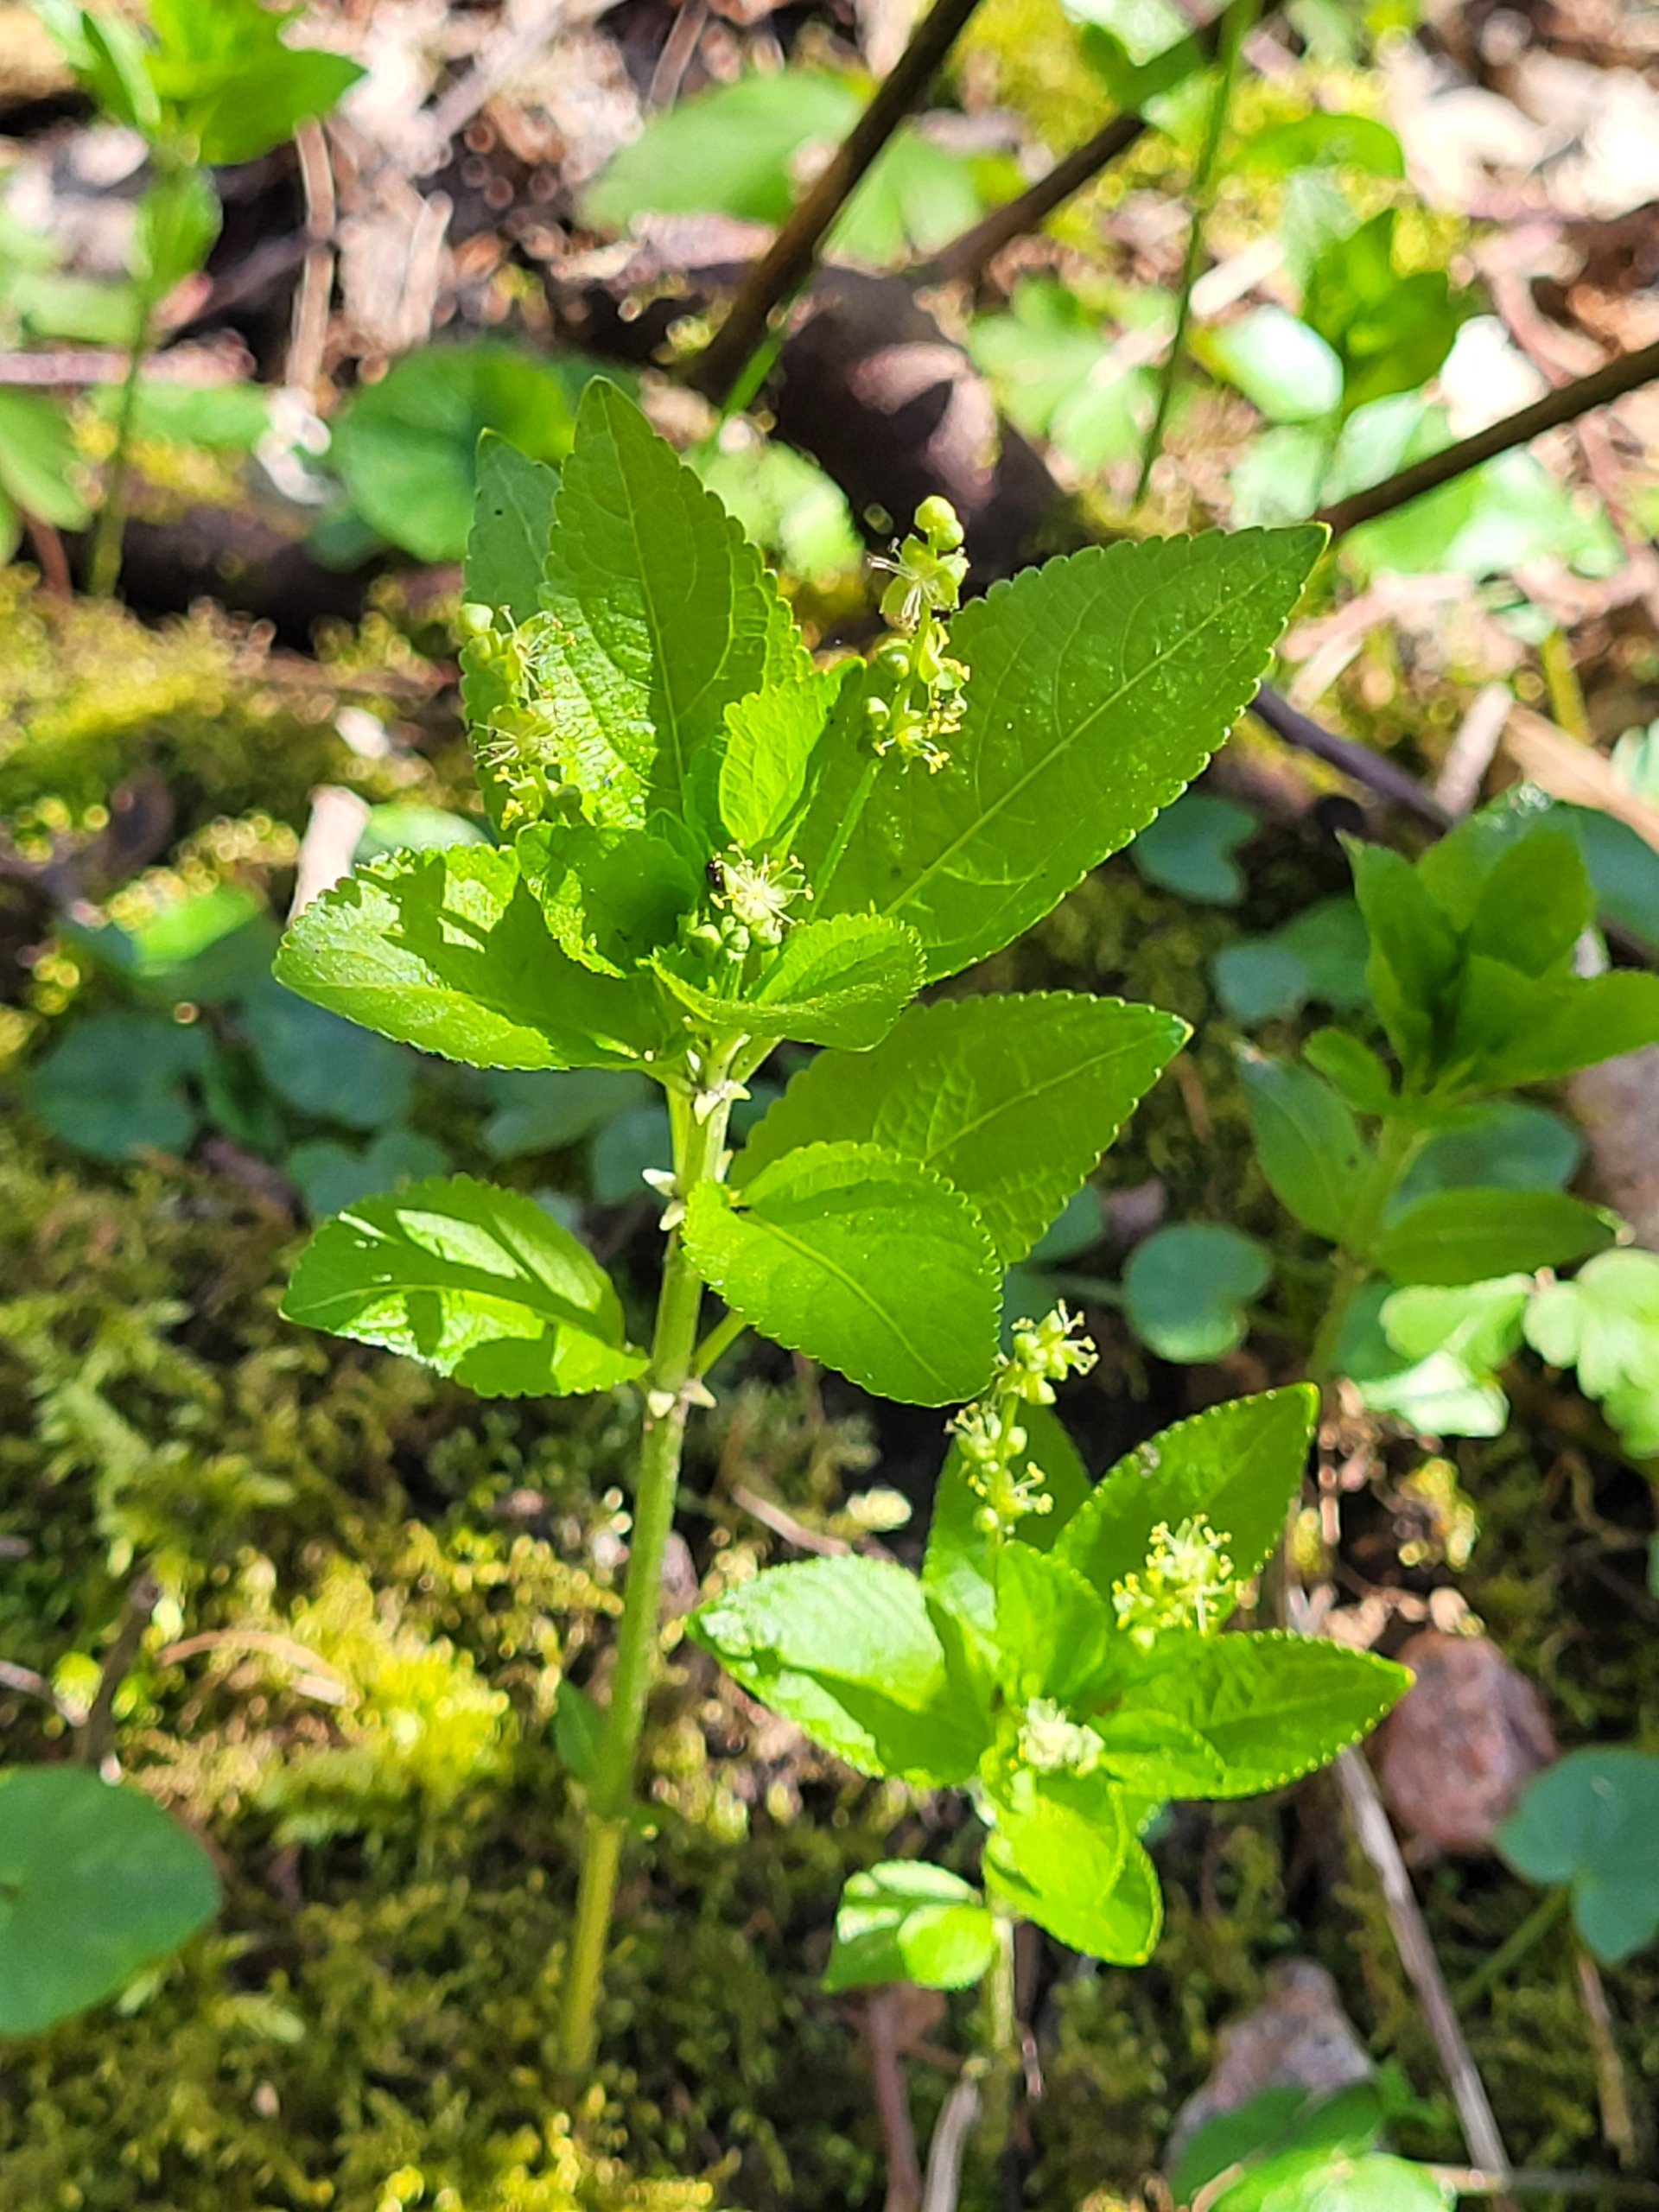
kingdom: Plantae
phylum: Tracheophyta
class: Magnoliopsida
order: Malpighiales
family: Euphorbiaceae
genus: Mercurialis
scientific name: Mercurialis perennis
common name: Almindelig bingelurt
